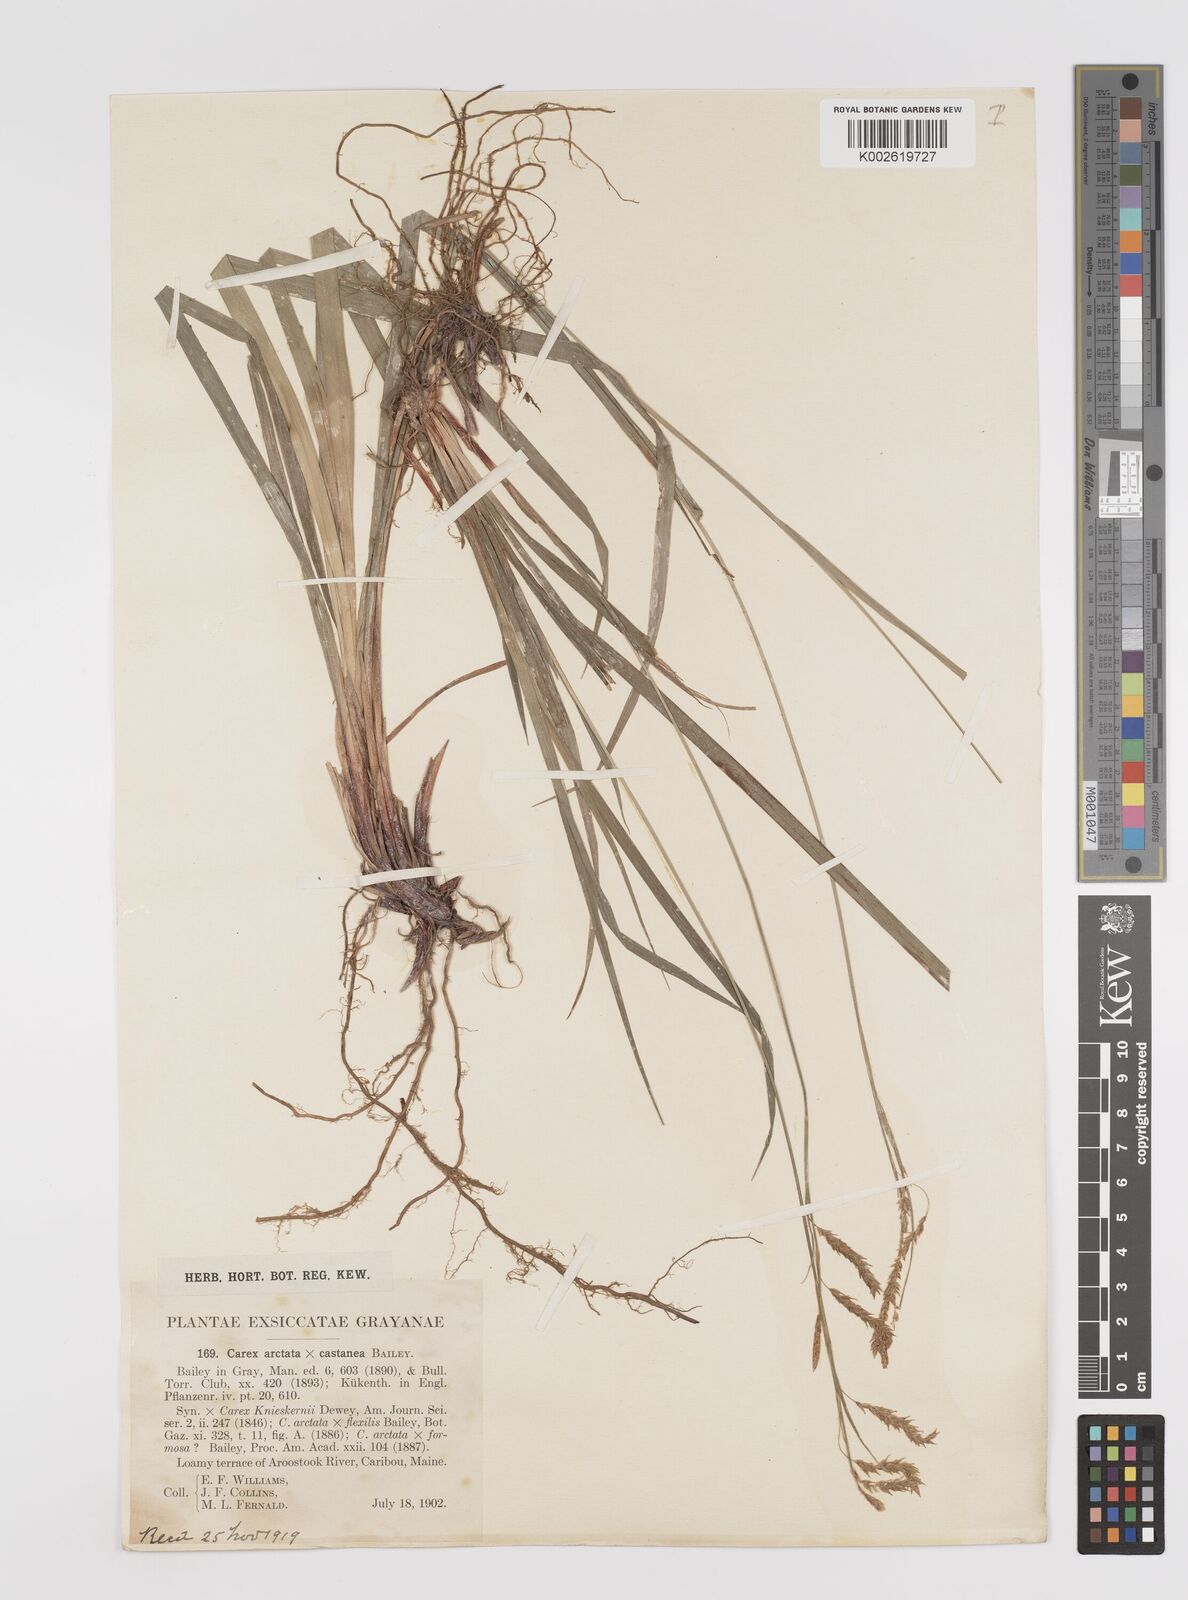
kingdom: Plantae
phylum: Tracheophyta
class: Liliopsida
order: Poales
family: Cyperaceae
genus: Carex
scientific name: Carex knieskernii
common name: Knieskern's sedge
